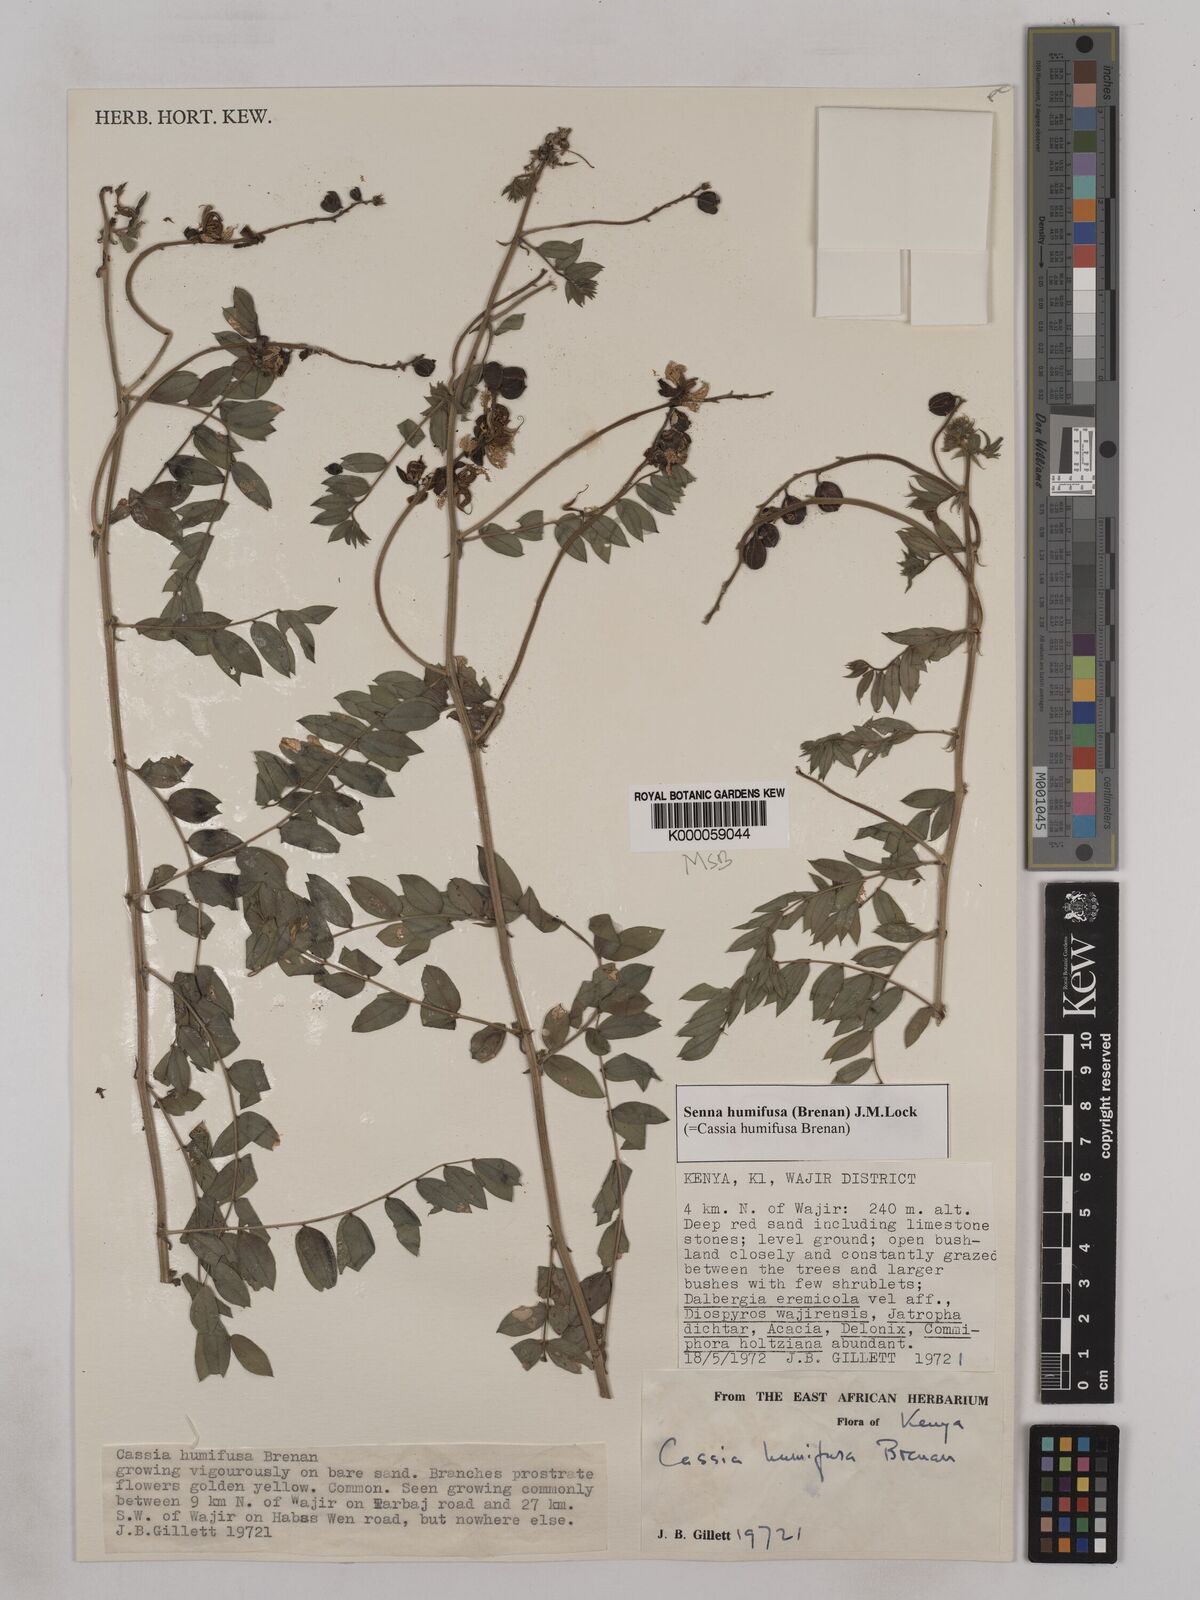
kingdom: Plantae
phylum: Tracheophyta
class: Magnoliopsida
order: Fabales
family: Fabaceae
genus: Senna
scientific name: Senna humifusa
